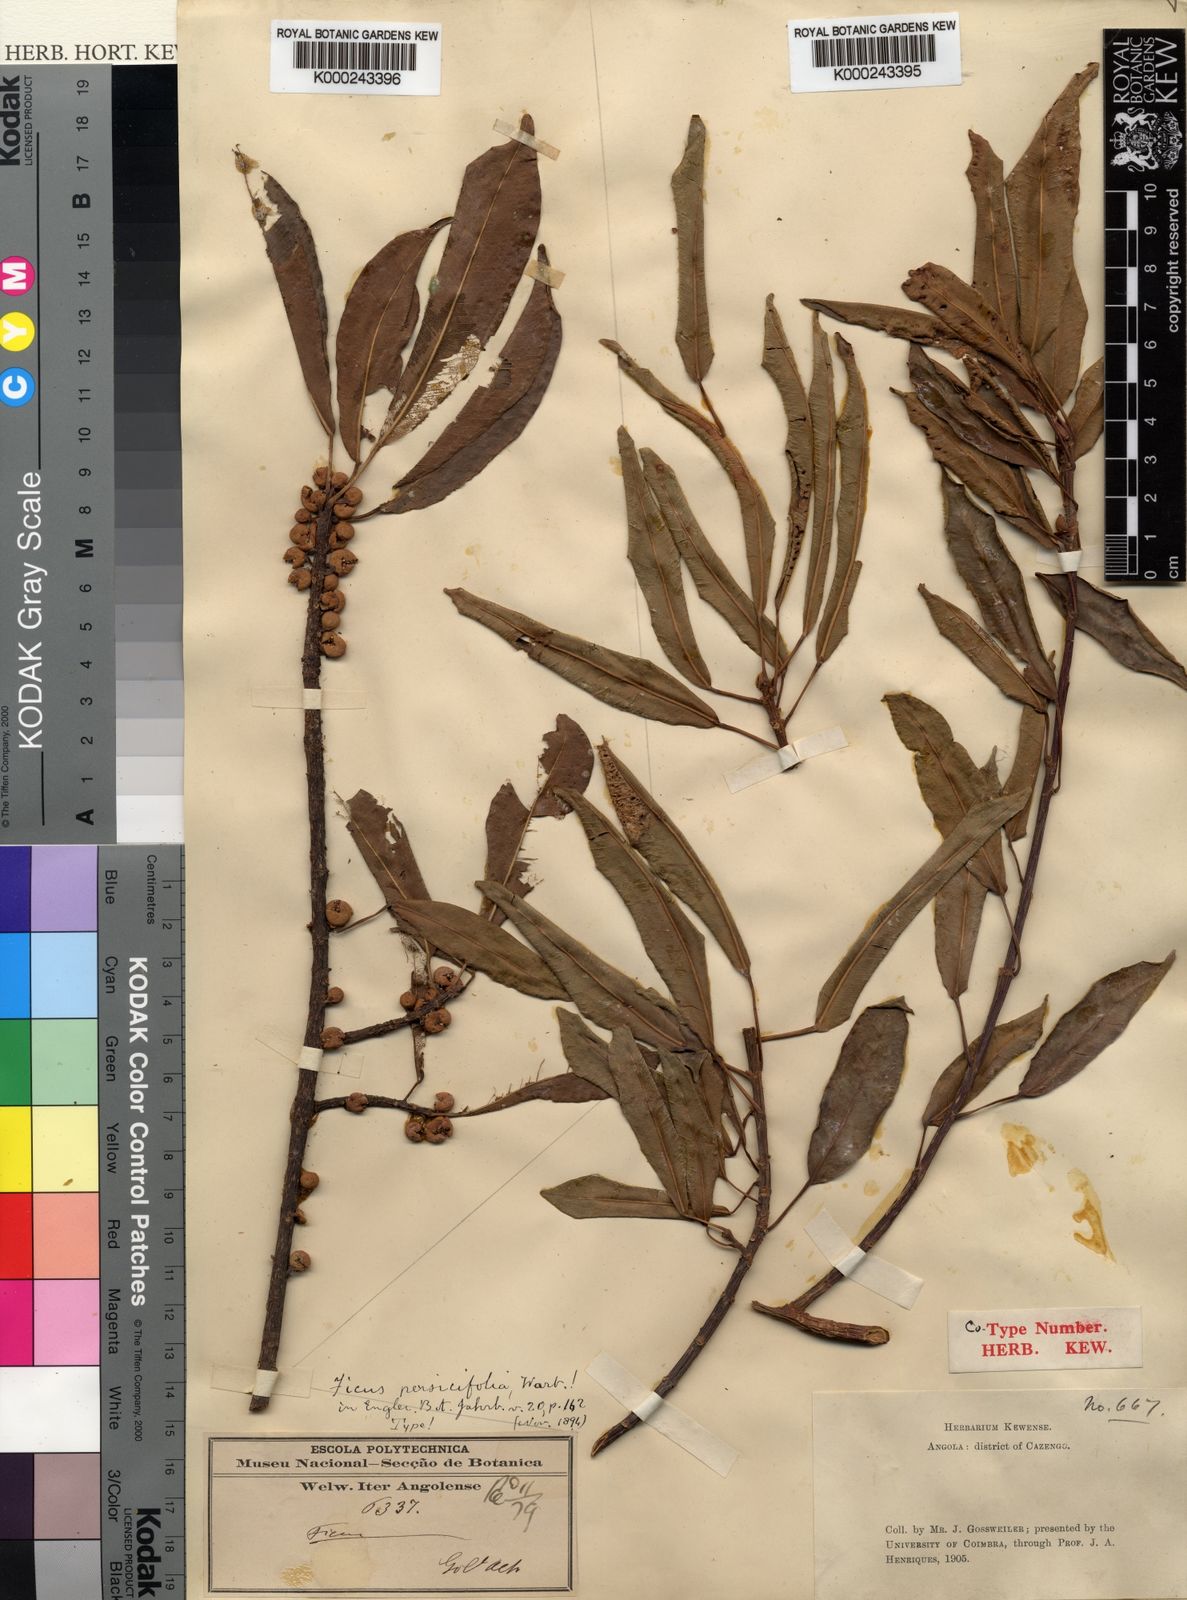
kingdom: Plantae
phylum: Tracheophyta
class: Magnoliopsida
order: Rosales
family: Moraceae
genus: Ficus
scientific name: Ficus thonningii
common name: Fig
